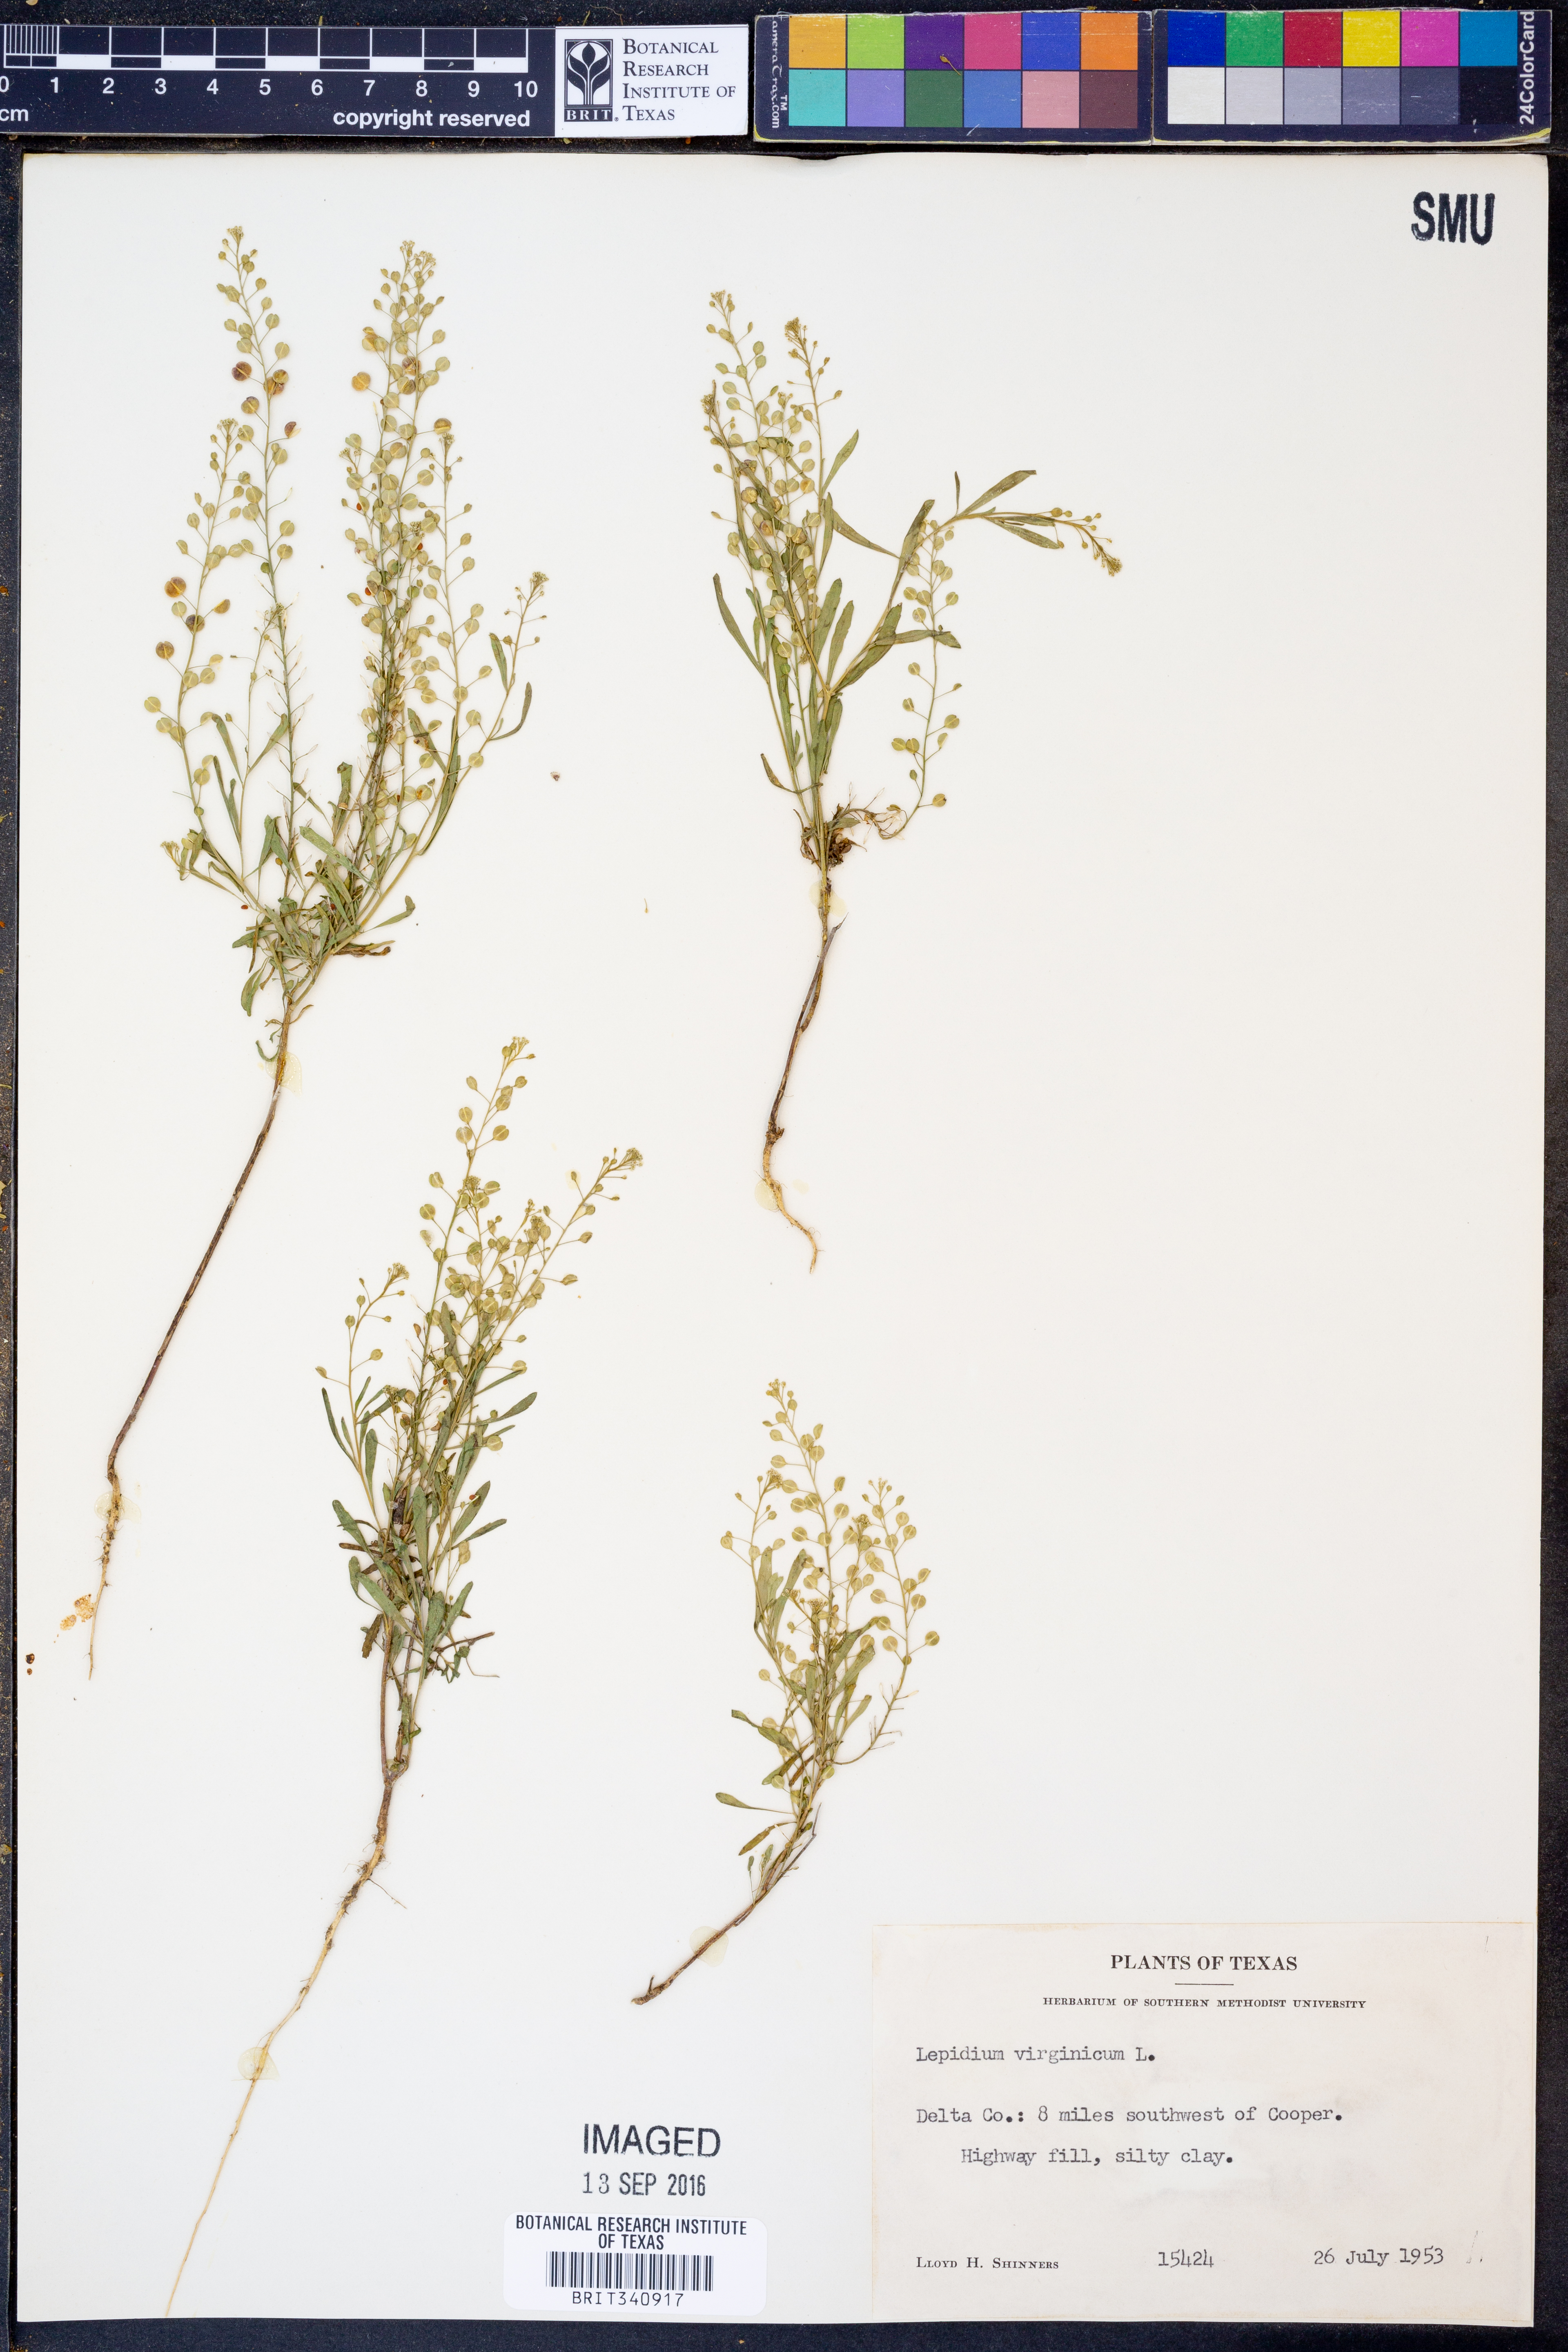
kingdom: Plantae
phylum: Tracheophyta
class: Magnoliopsida
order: Brassicales
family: Brassicaceae
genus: Lepidium
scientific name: Lepidium virginicum
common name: Least pepperwort
